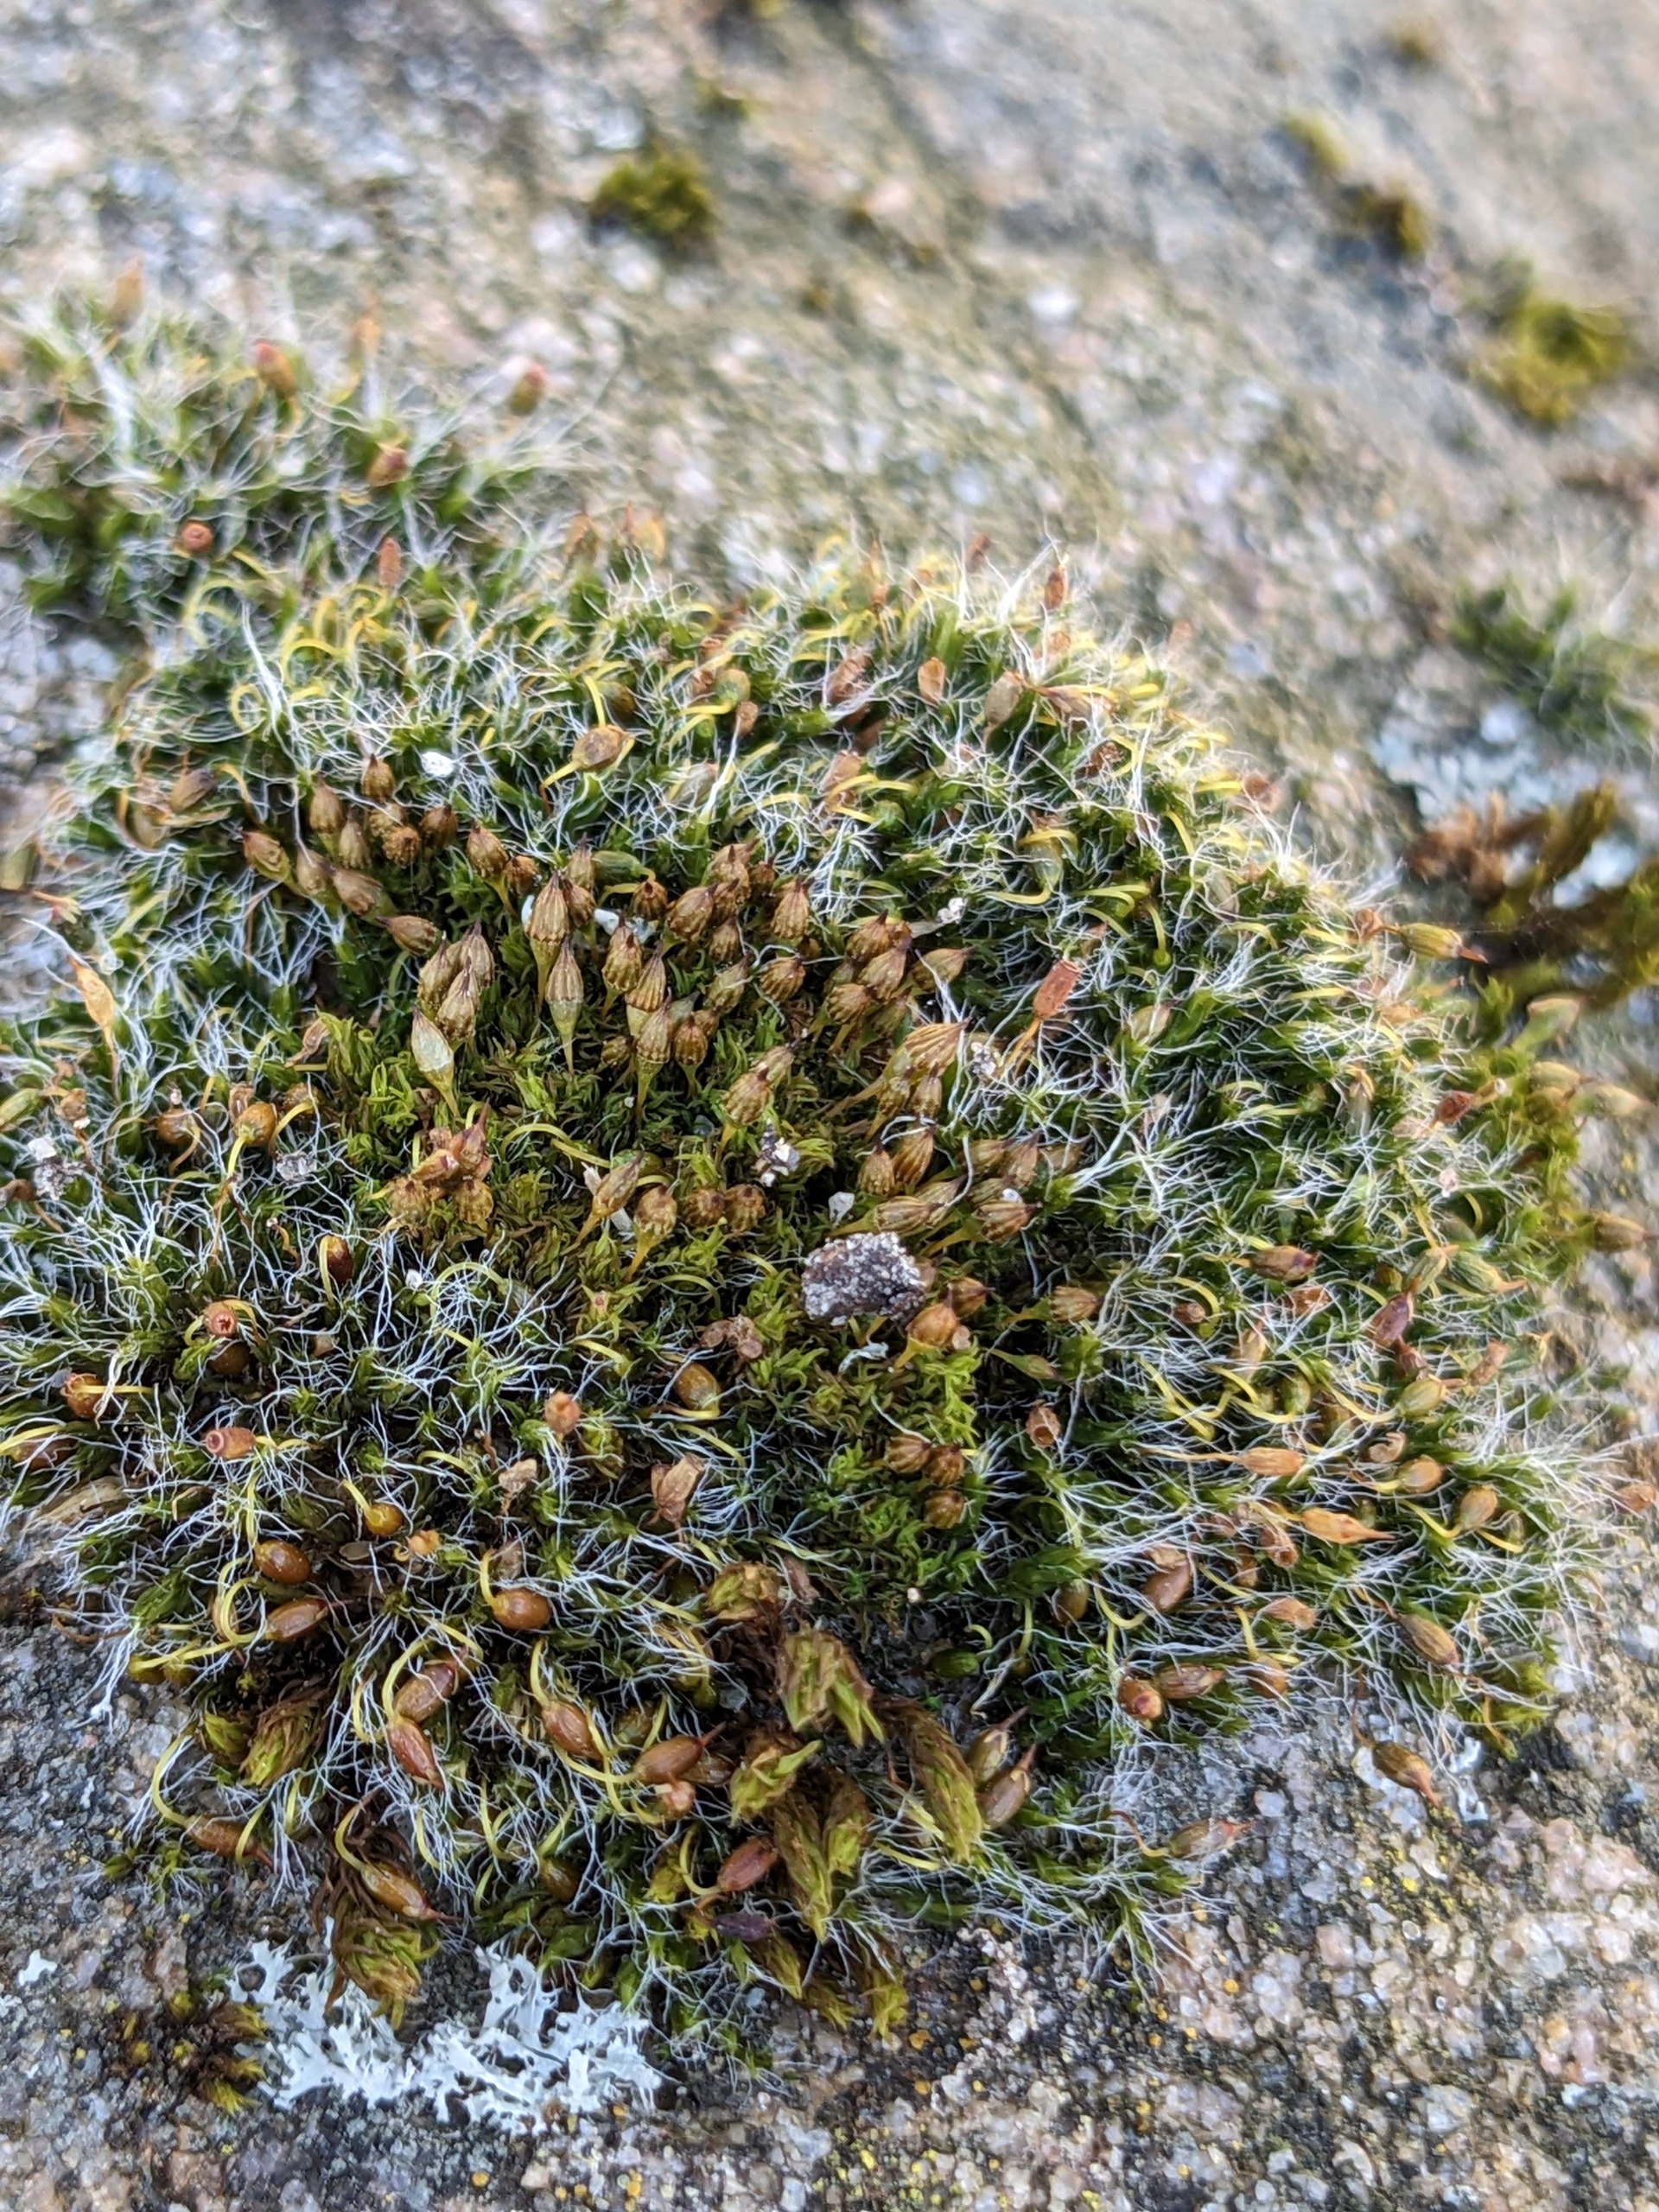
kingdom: Plantae
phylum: Bryophyta
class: Bryopsida
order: Orthotrichales
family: Orthotrichaceae
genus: Orthotrichum
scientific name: Orthotrichum pulchellum
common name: Smuk furehætte
